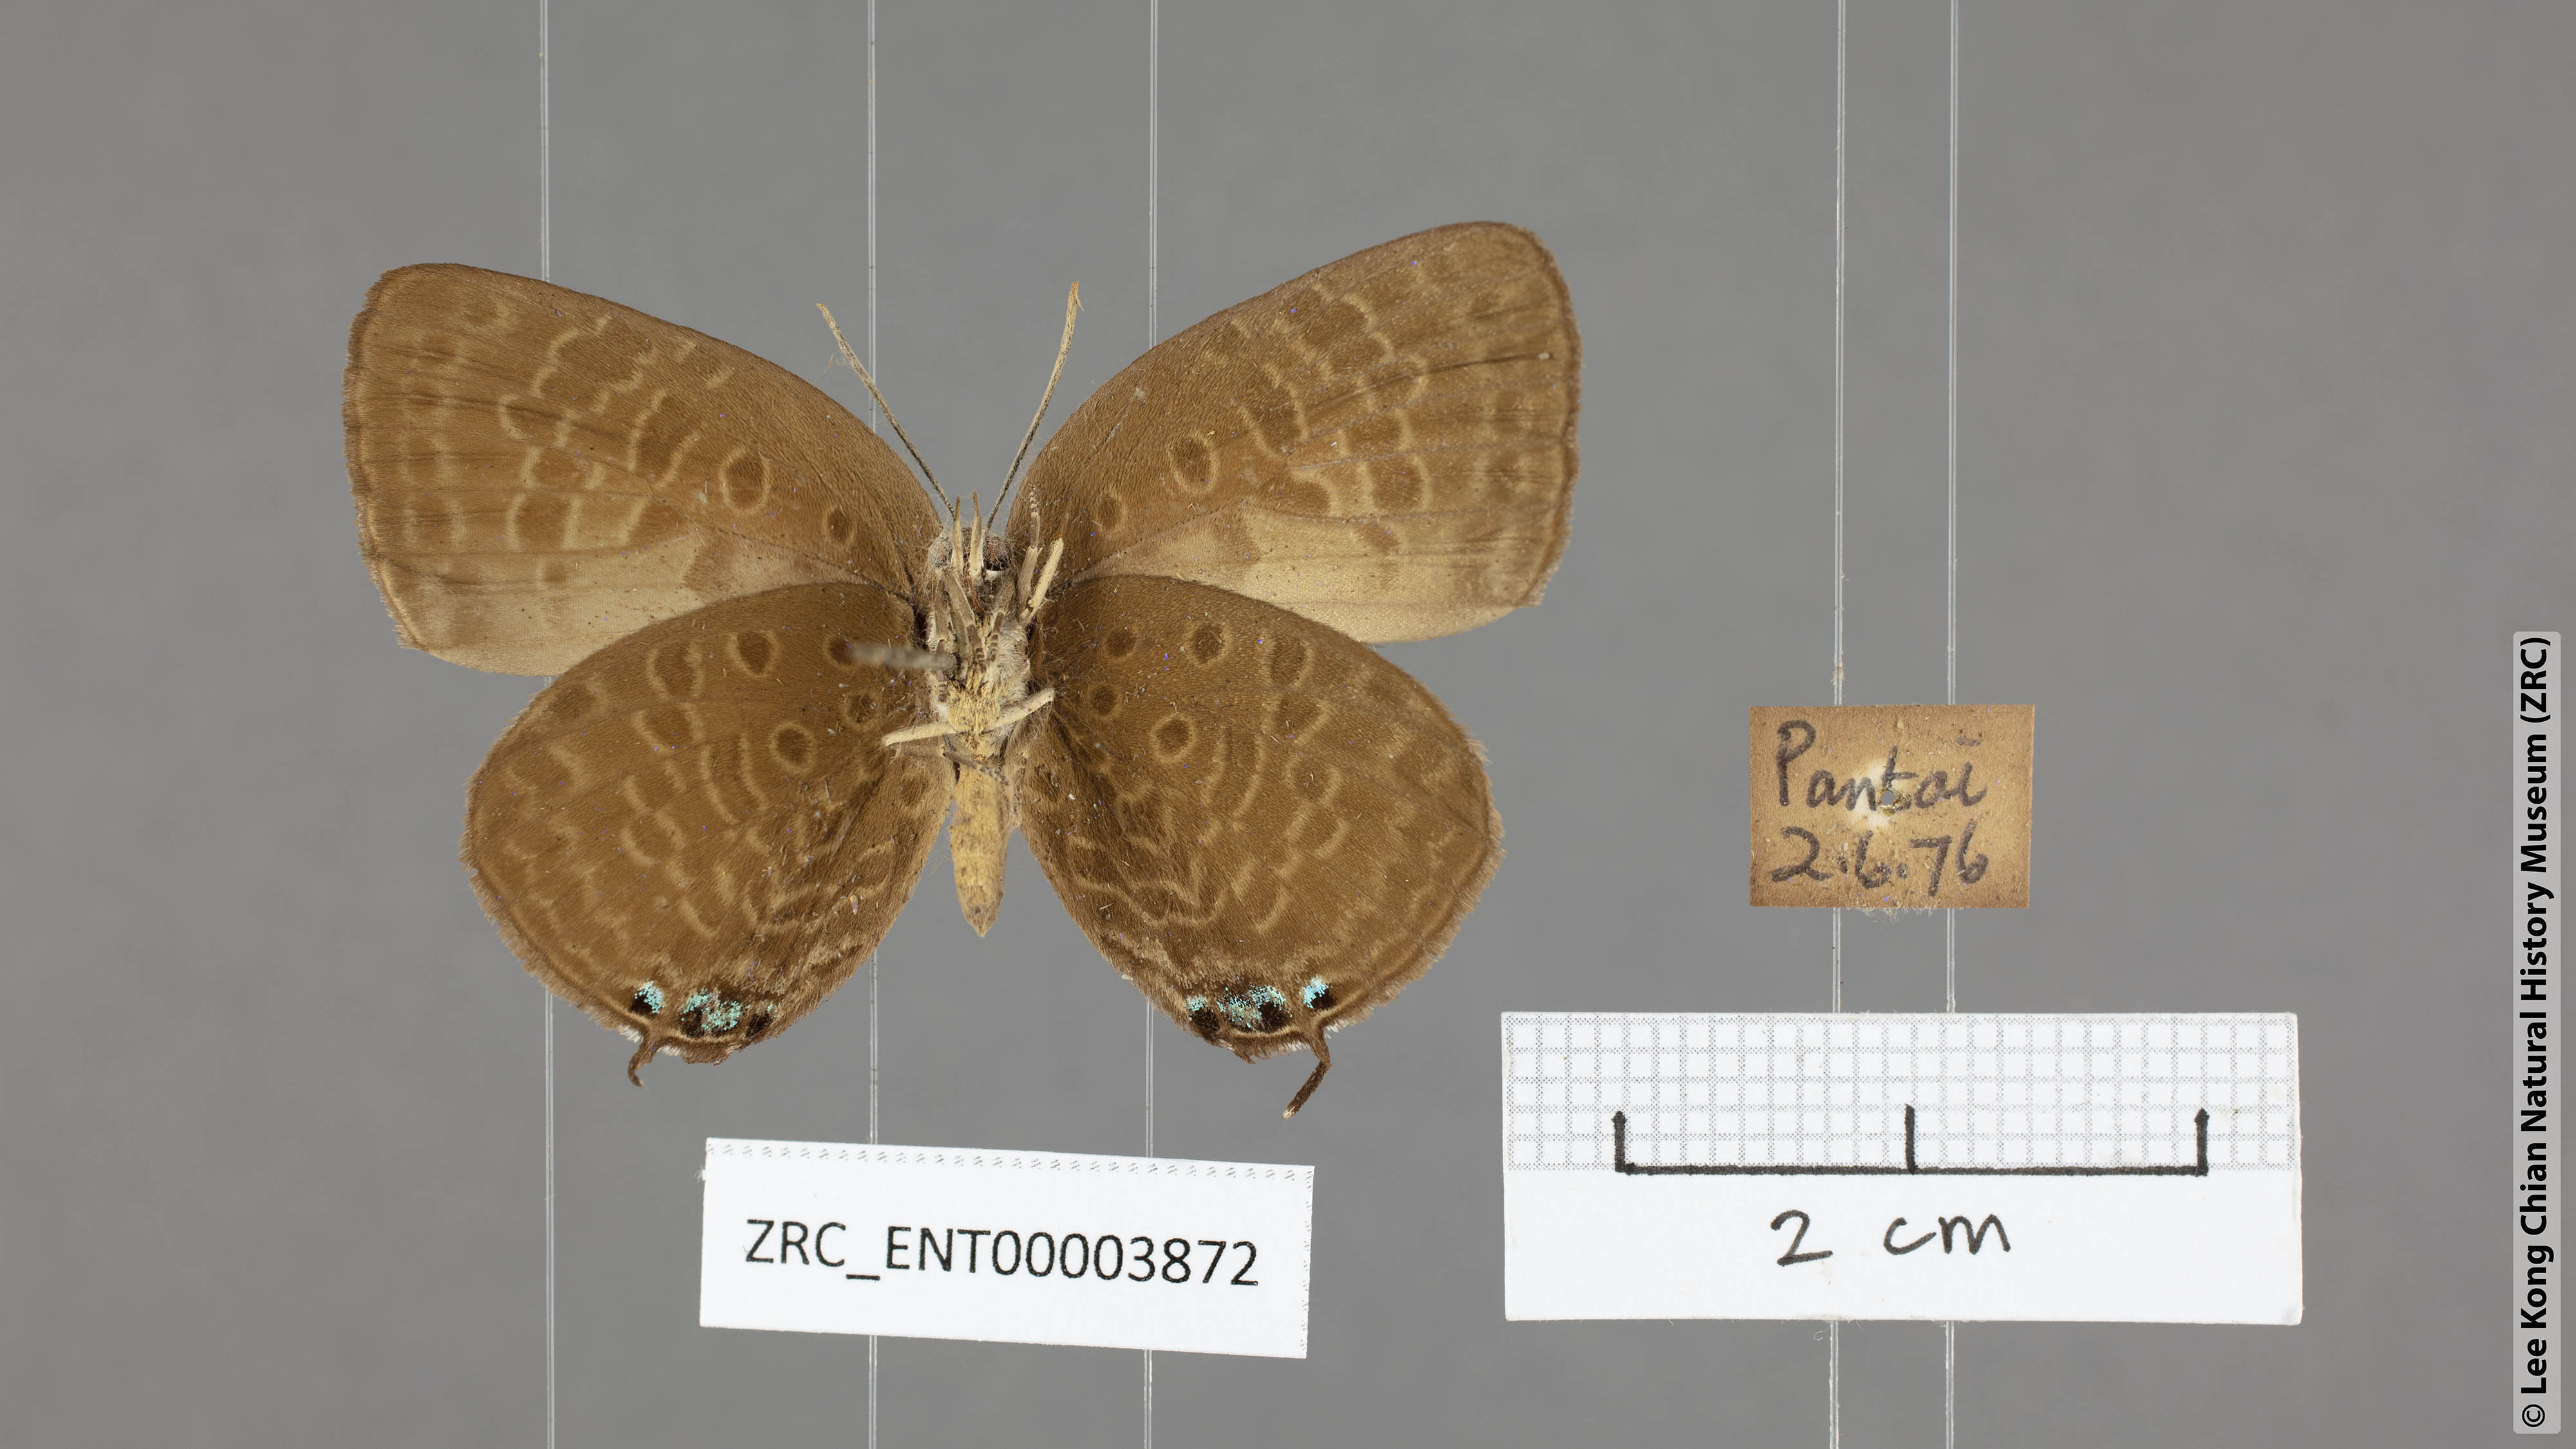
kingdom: Animalia
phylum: Arthropoda
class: Insecta
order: Lepidoptera
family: Lycaenidae
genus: Arhopala
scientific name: Arhopala atosia
